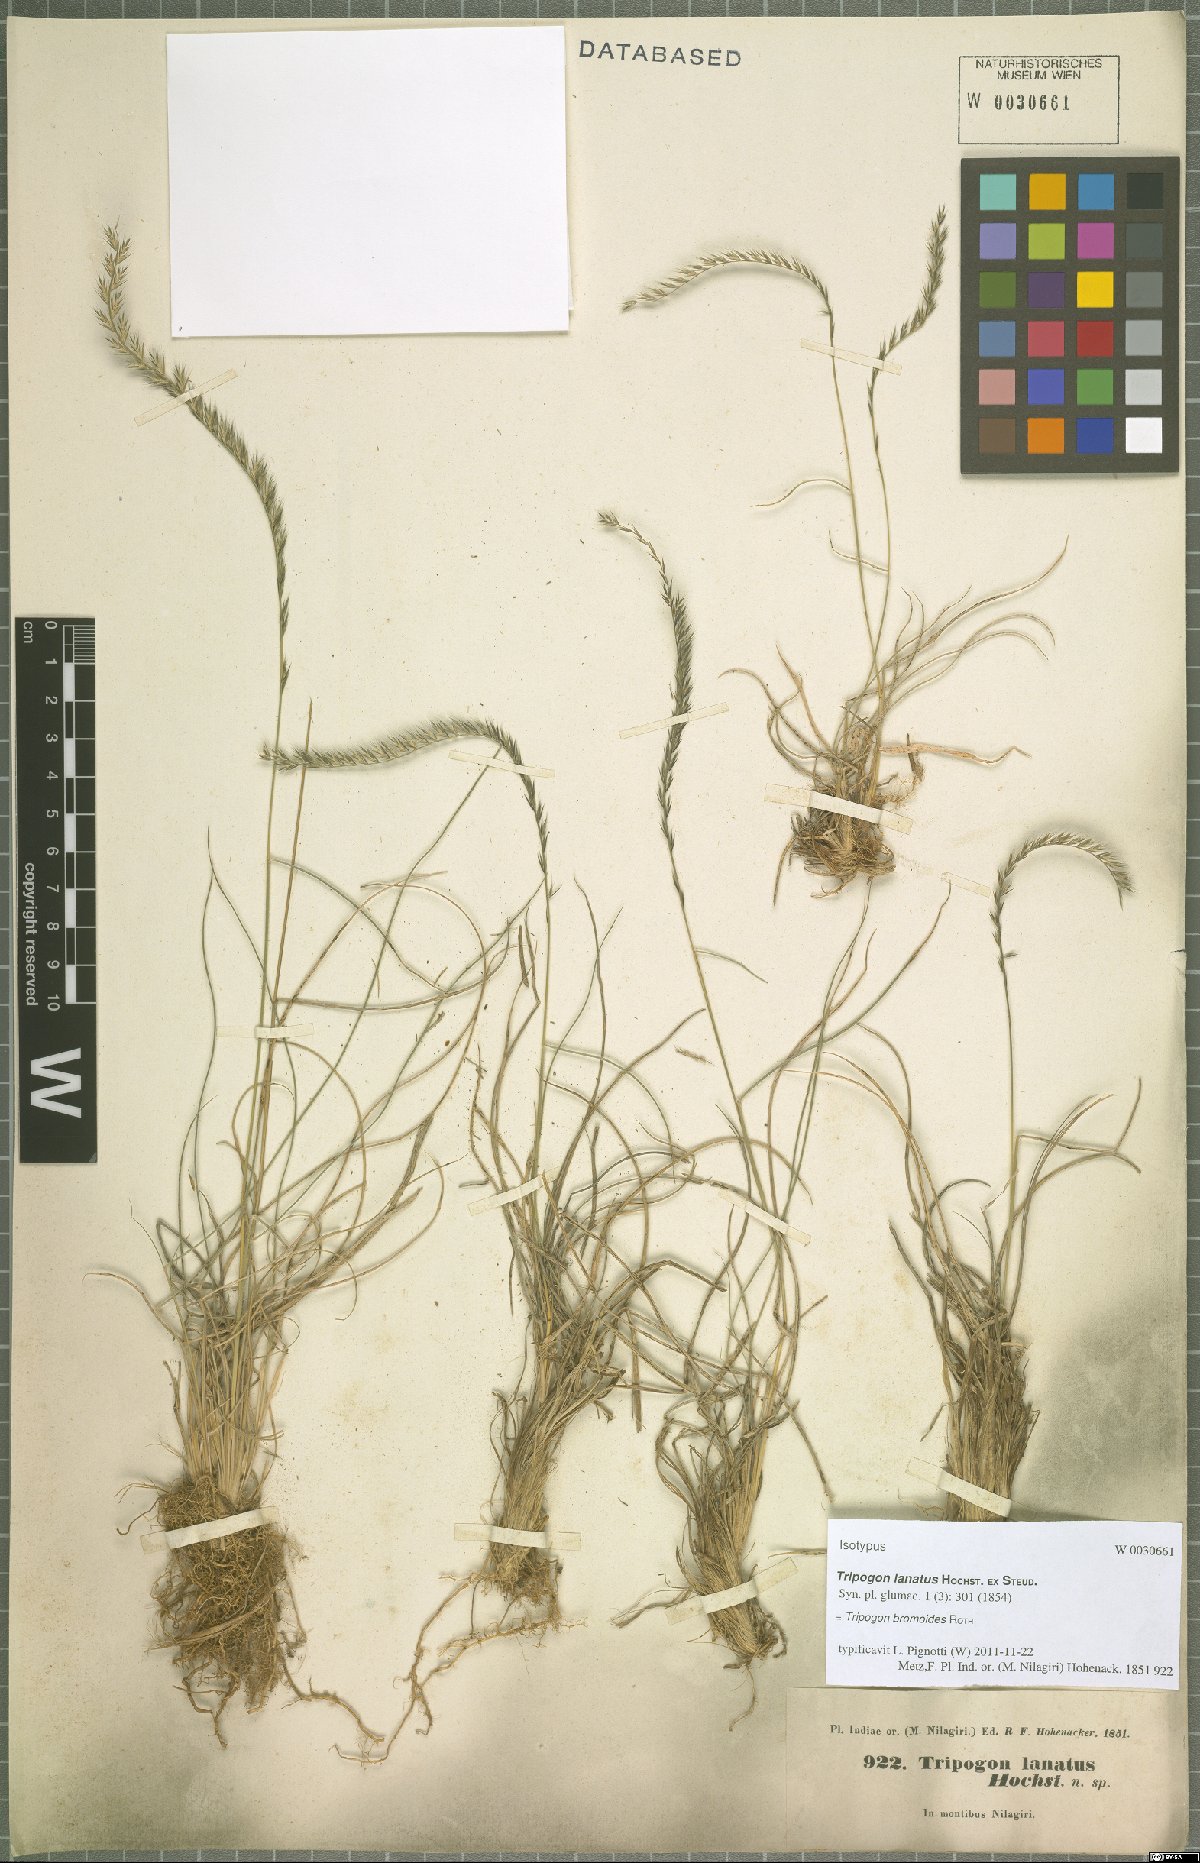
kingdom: Plantae
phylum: Tracheophyta
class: Liliopsida
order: Poales
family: Poaceae
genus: Tripogon
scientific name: Tripogon bromoides
